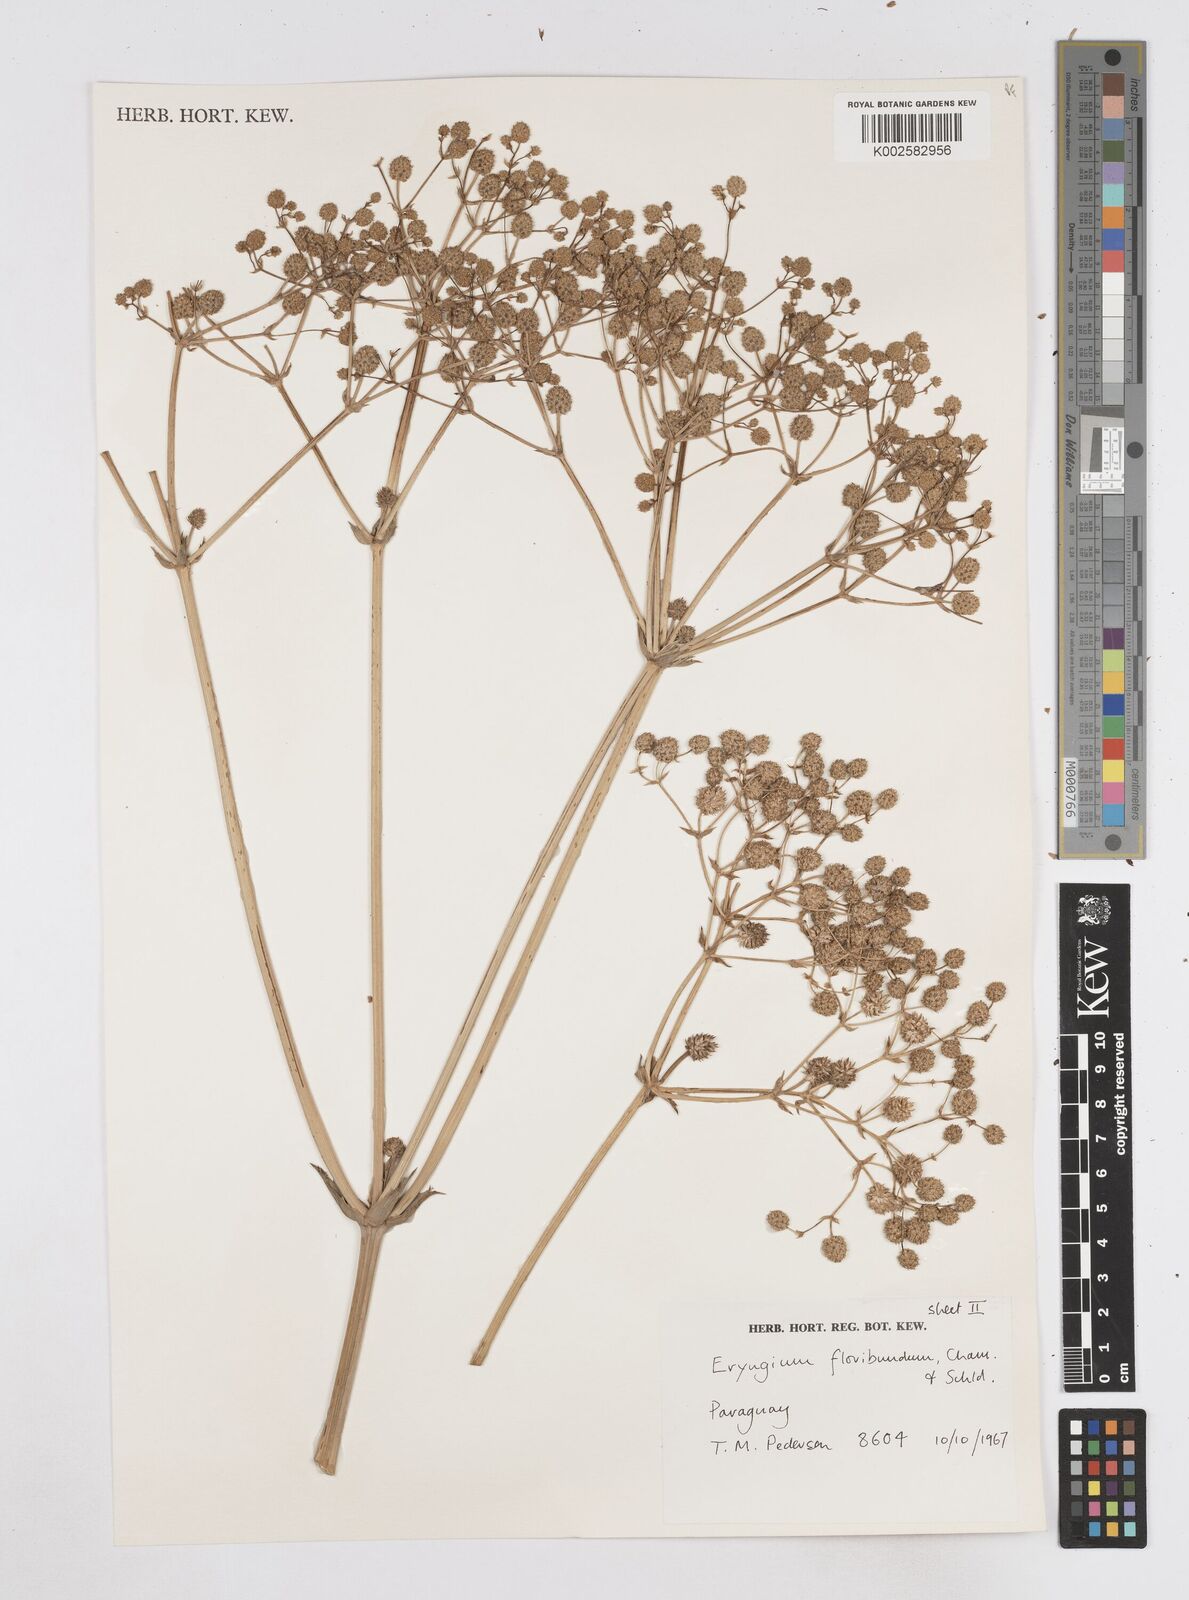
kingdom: Plantae
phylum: Tracheophyta
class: Magnoliopsida
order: Apiales
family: Apiaceae
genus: Eryngium
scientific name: Eryngium floribundum
